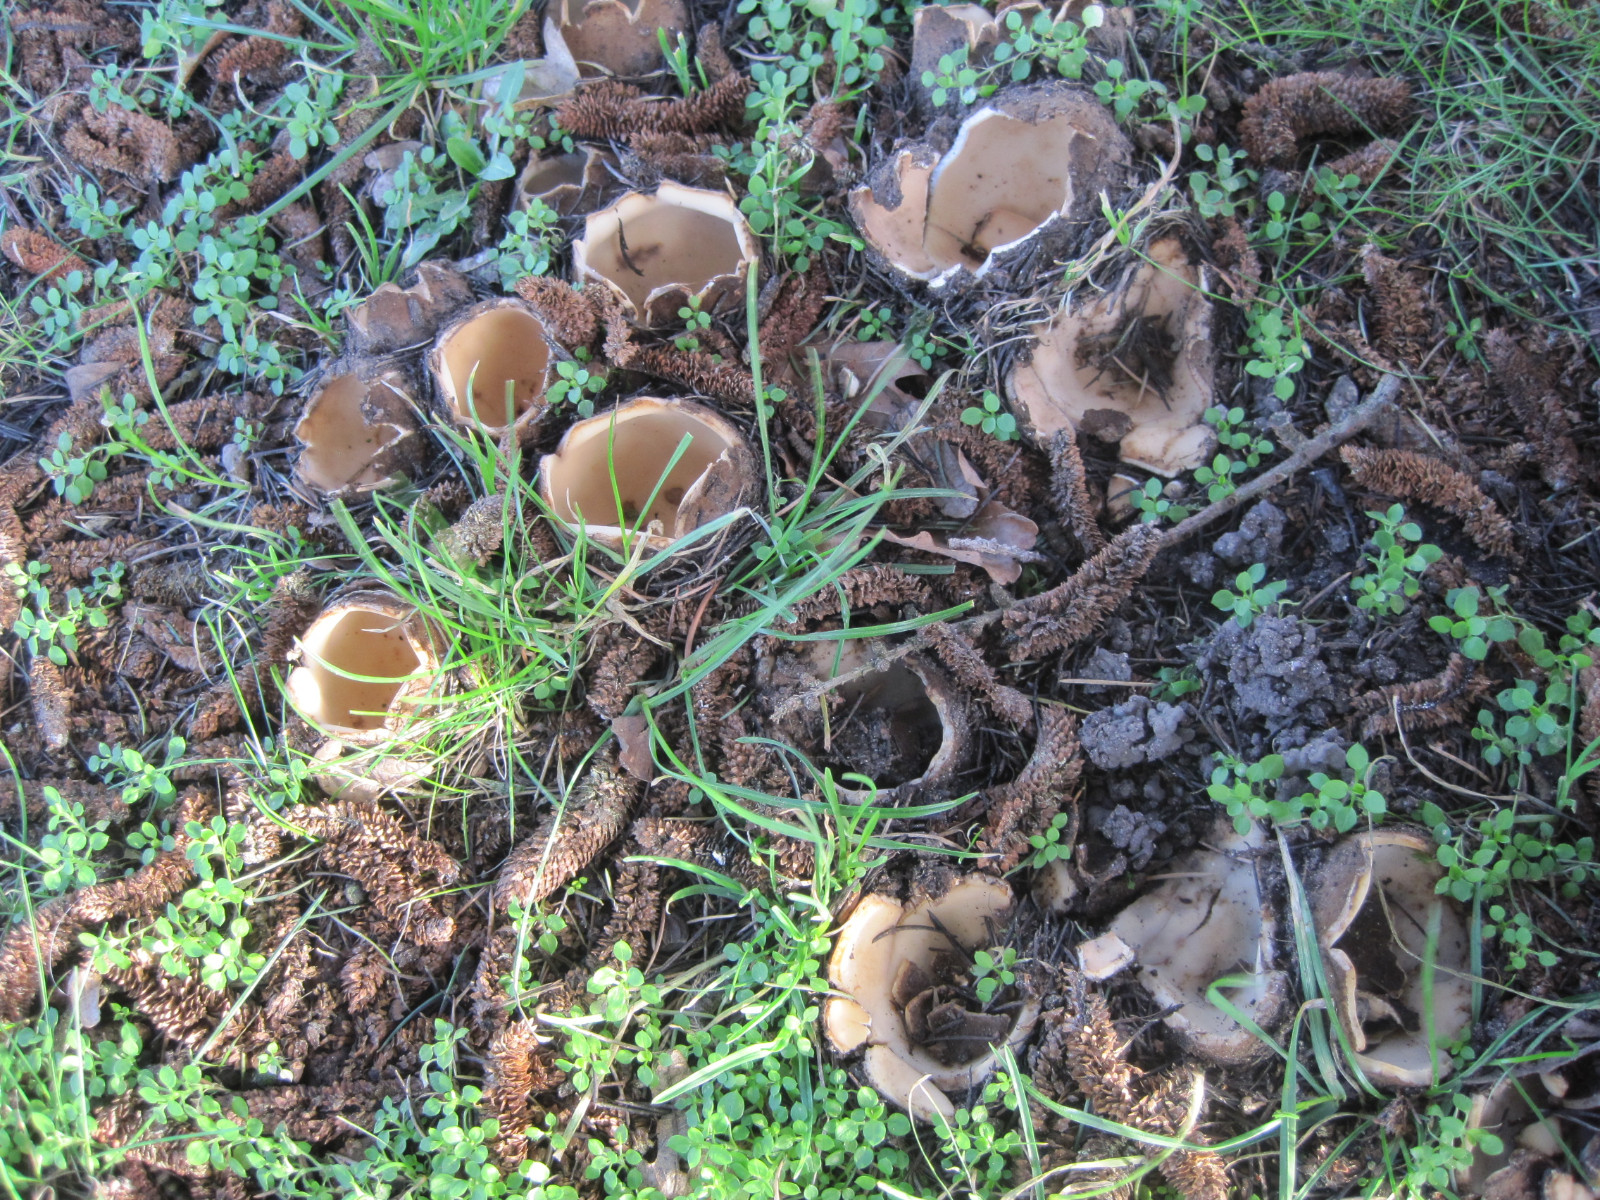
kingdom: Fungi
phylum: Ascomycota
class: Pezizomycetes
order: Pezizales
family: Pyronemataceae
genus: Geopora
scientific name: Geopora sumneriana
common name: vår-jordbæger
